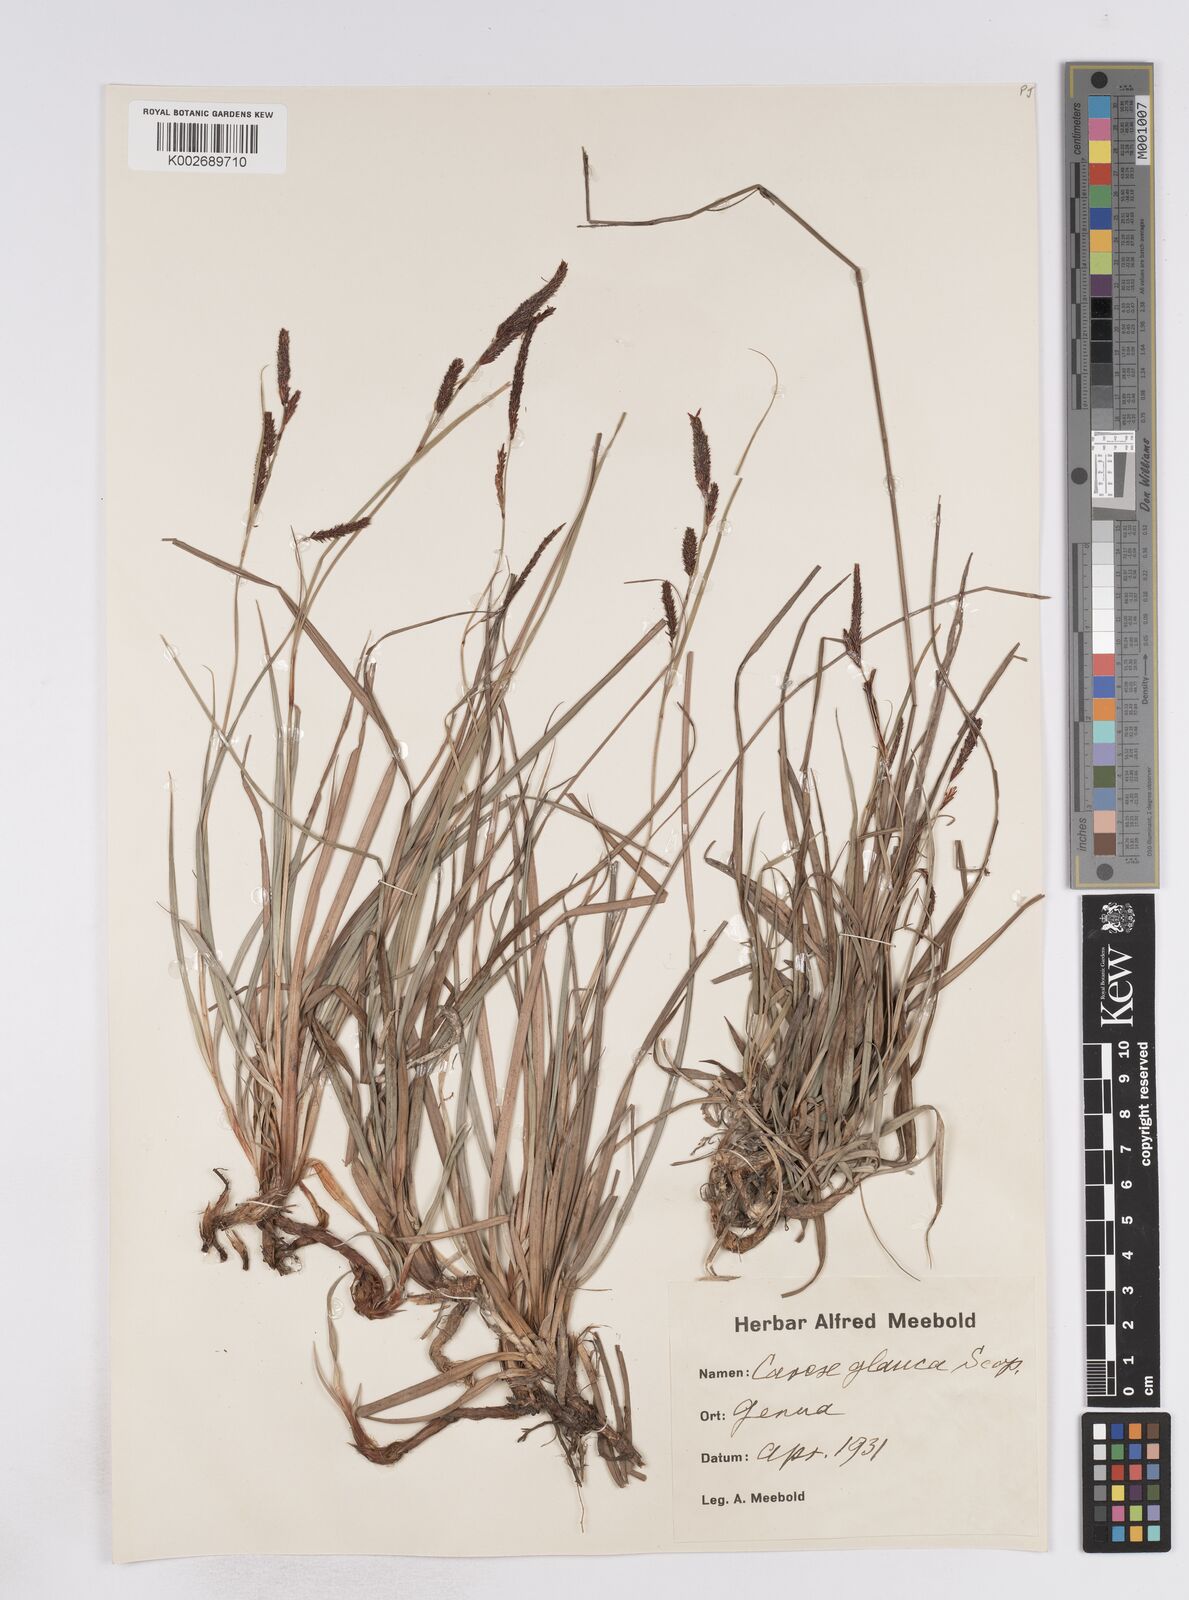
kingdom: Plantae
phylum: Tracheophyta
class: Liliopsida
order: Poales
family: Cyperaceae
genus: Carex
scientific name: Carex flacca
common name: Glaucous sedge
